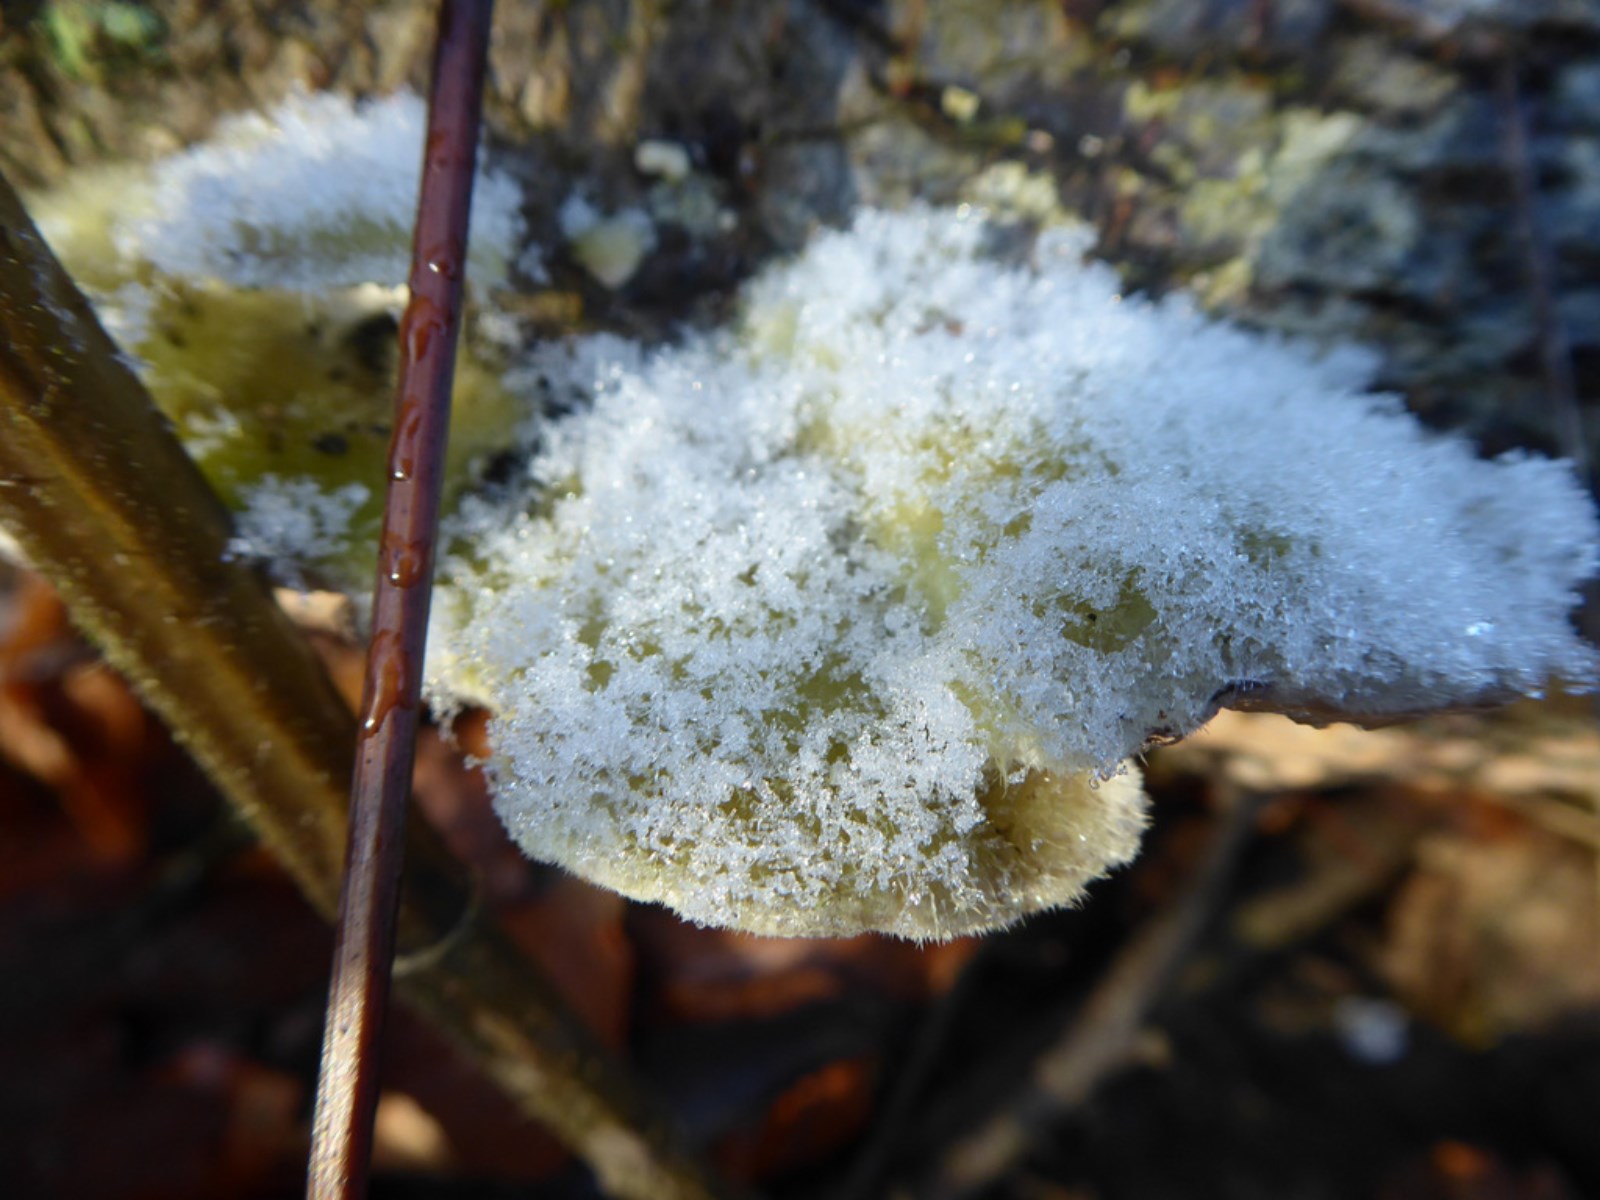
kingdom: Fungi
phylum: Basidiomycota
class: Agaricomycetes
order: Polyporales
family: Polyporaceae
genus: Trametes
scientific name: Trametes hirsuta
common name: håret læderporesvamp
